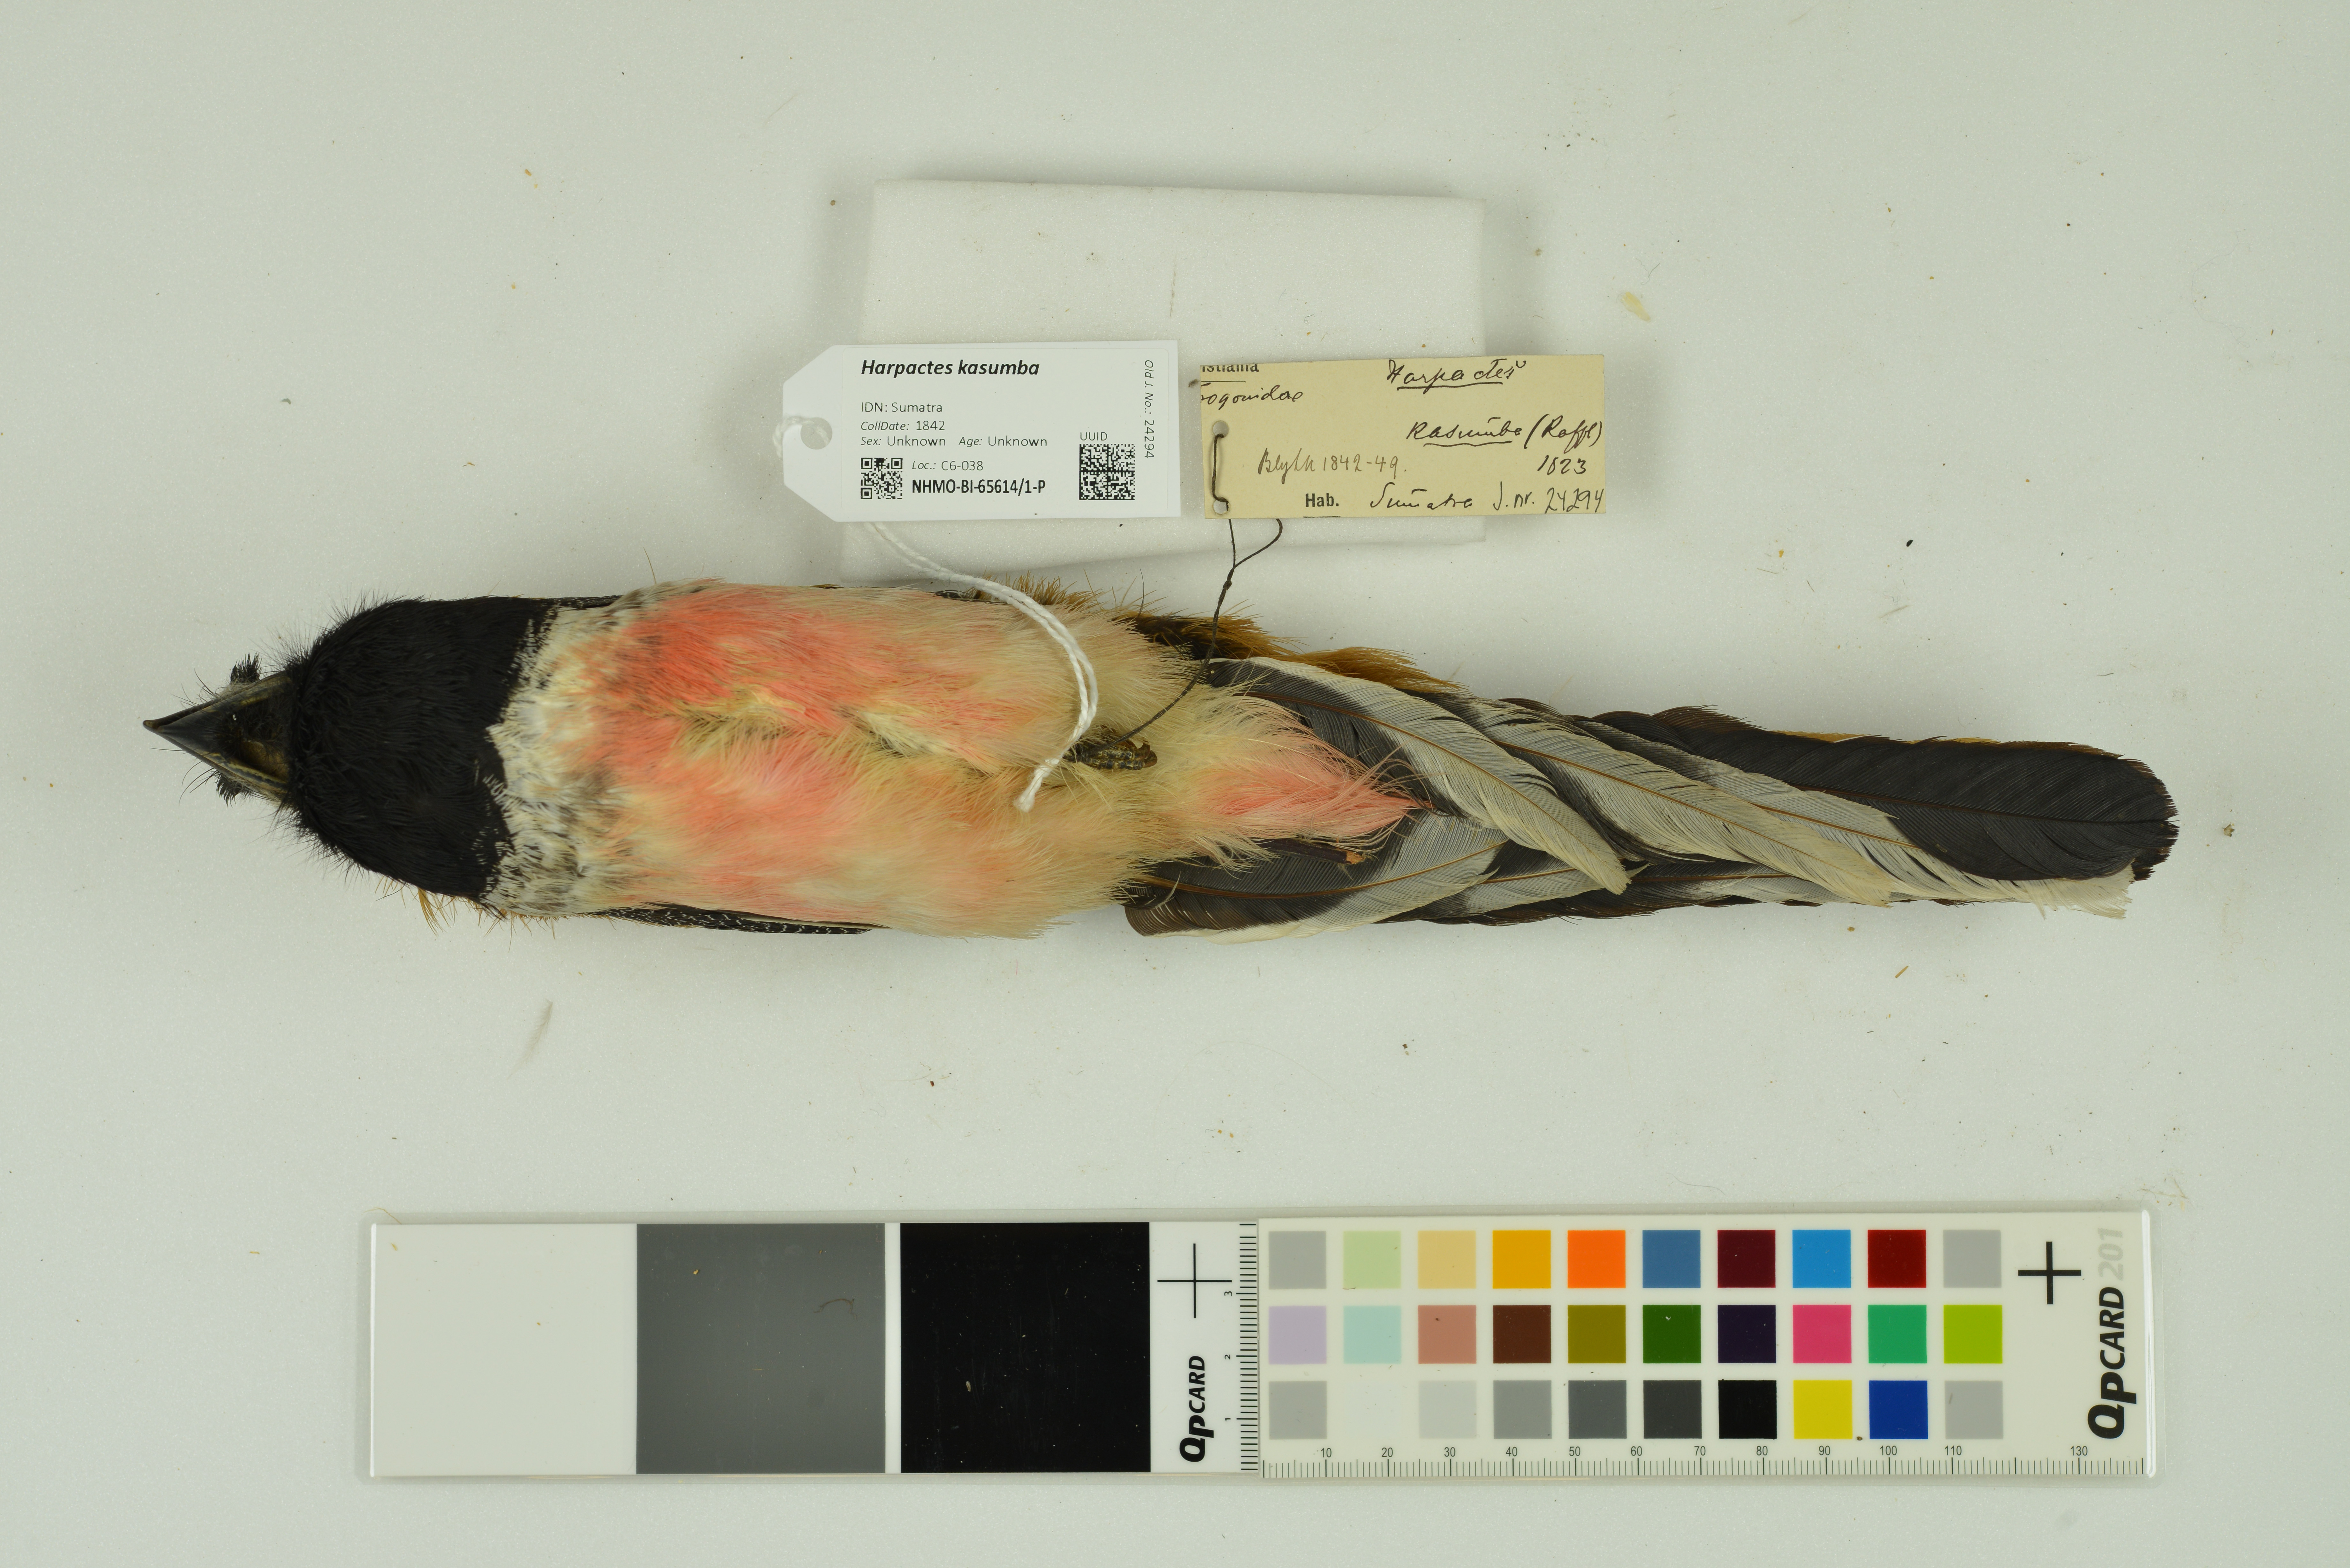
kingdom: Animalia
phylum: Chordata
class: Aves
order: Trogoniformes
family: Trogonidae
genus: Harpactes
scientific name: Harpactes kasumba
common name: Red-naped trogon
